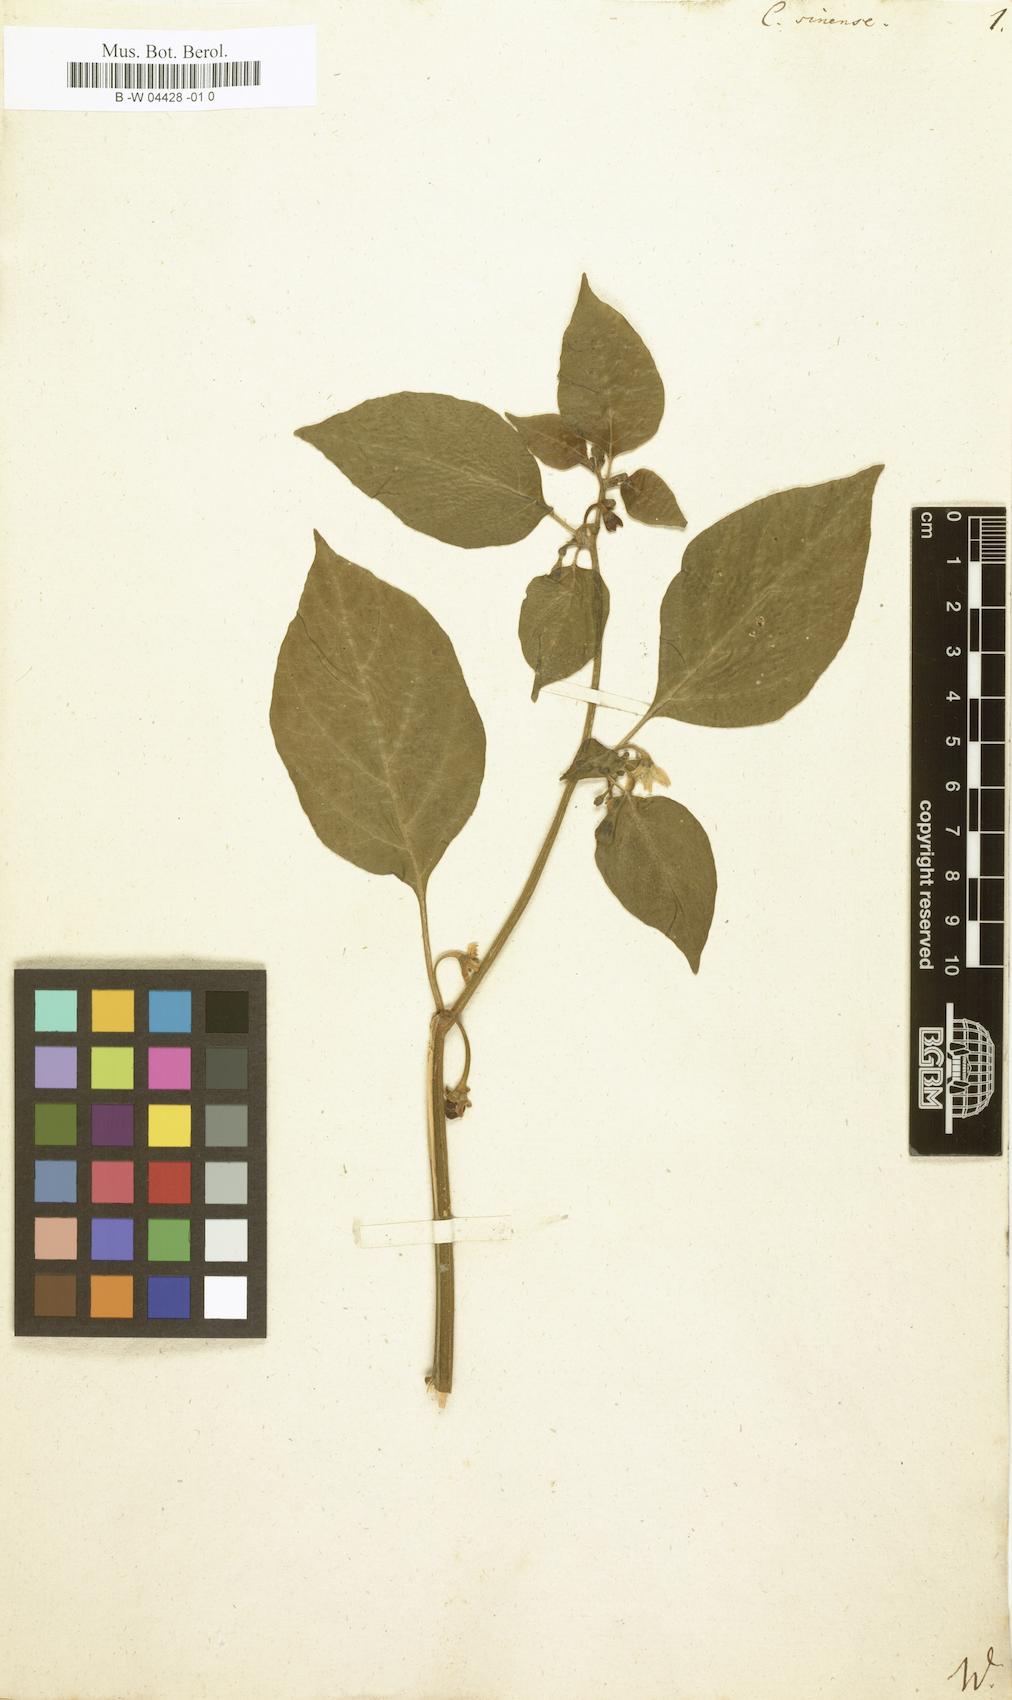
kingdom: Plantae
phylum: Tracheophyta
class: Magnoliopsida
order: Solanales
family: Solanaceae
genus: Capsicum
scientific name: Capsicum sinense
